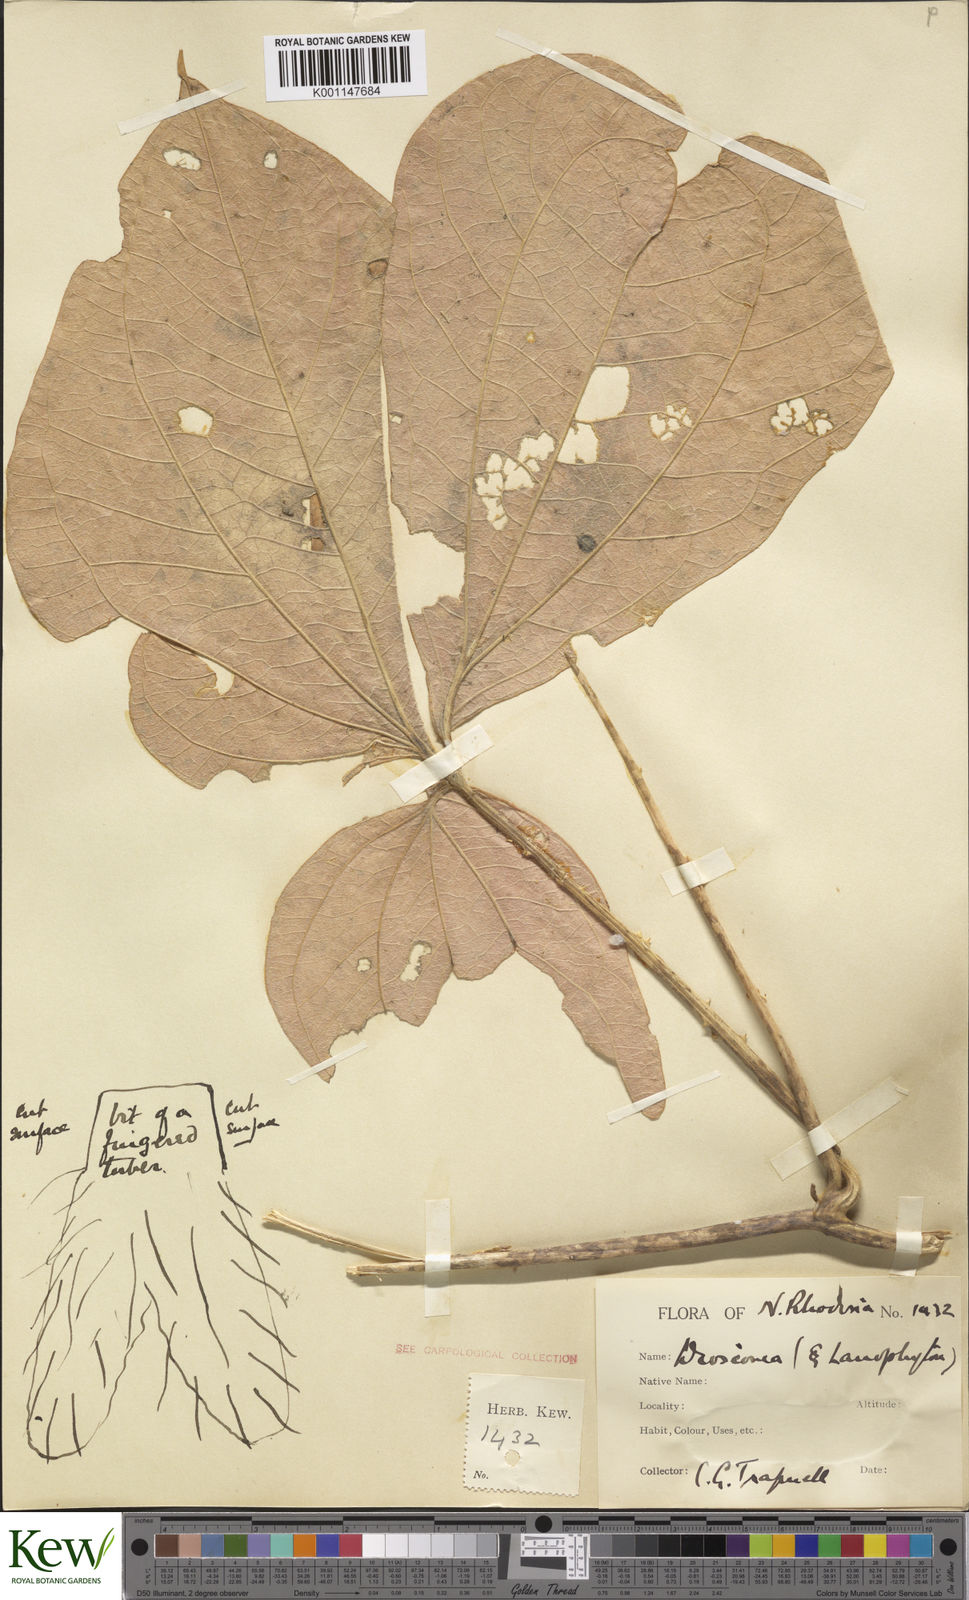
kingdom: Plantae
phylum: Tracheophyta
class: Liliopsida
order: Dioscoreales
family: Dioscoreaceae
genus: Dioscorea
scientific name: Dioscorea dumetorum
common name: African bitter yam
